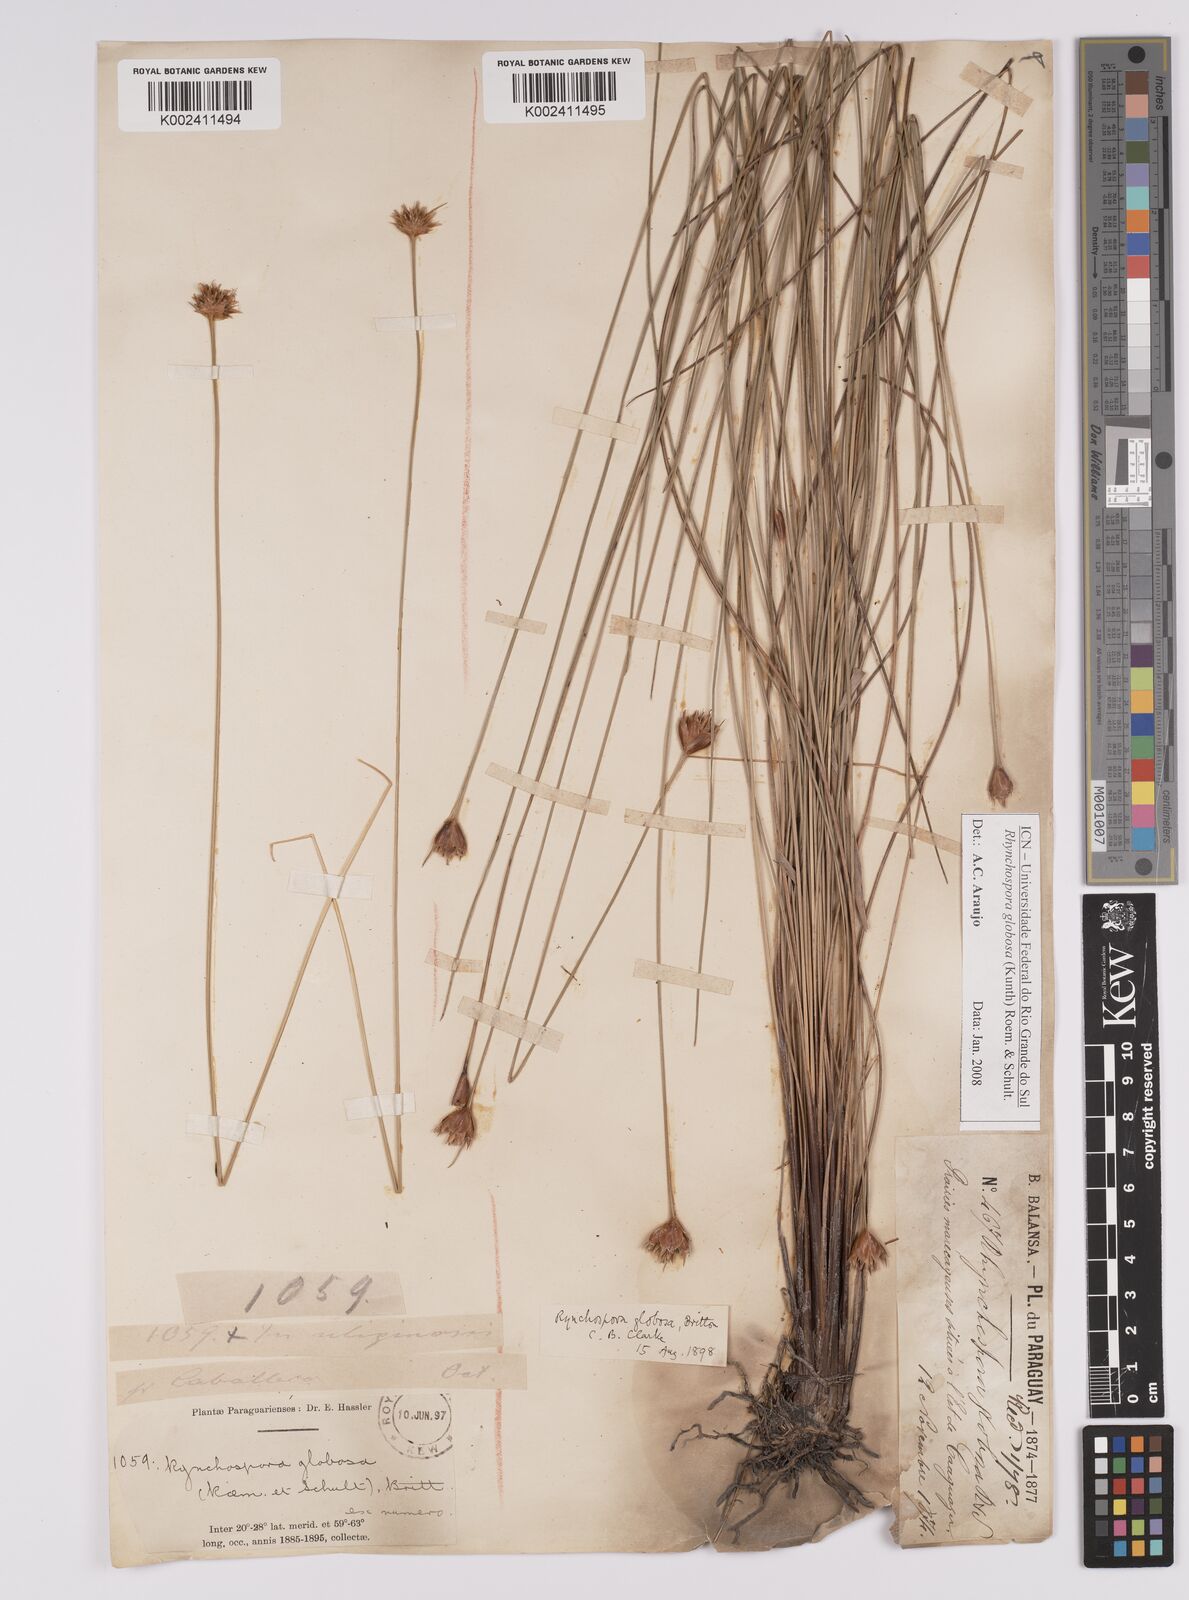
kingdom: Plantae
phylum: Tracheophyta
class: Liliopsida
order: Poales
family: Cyperaceae
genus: Rhynchospora
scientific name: Rhynchospora globosa
